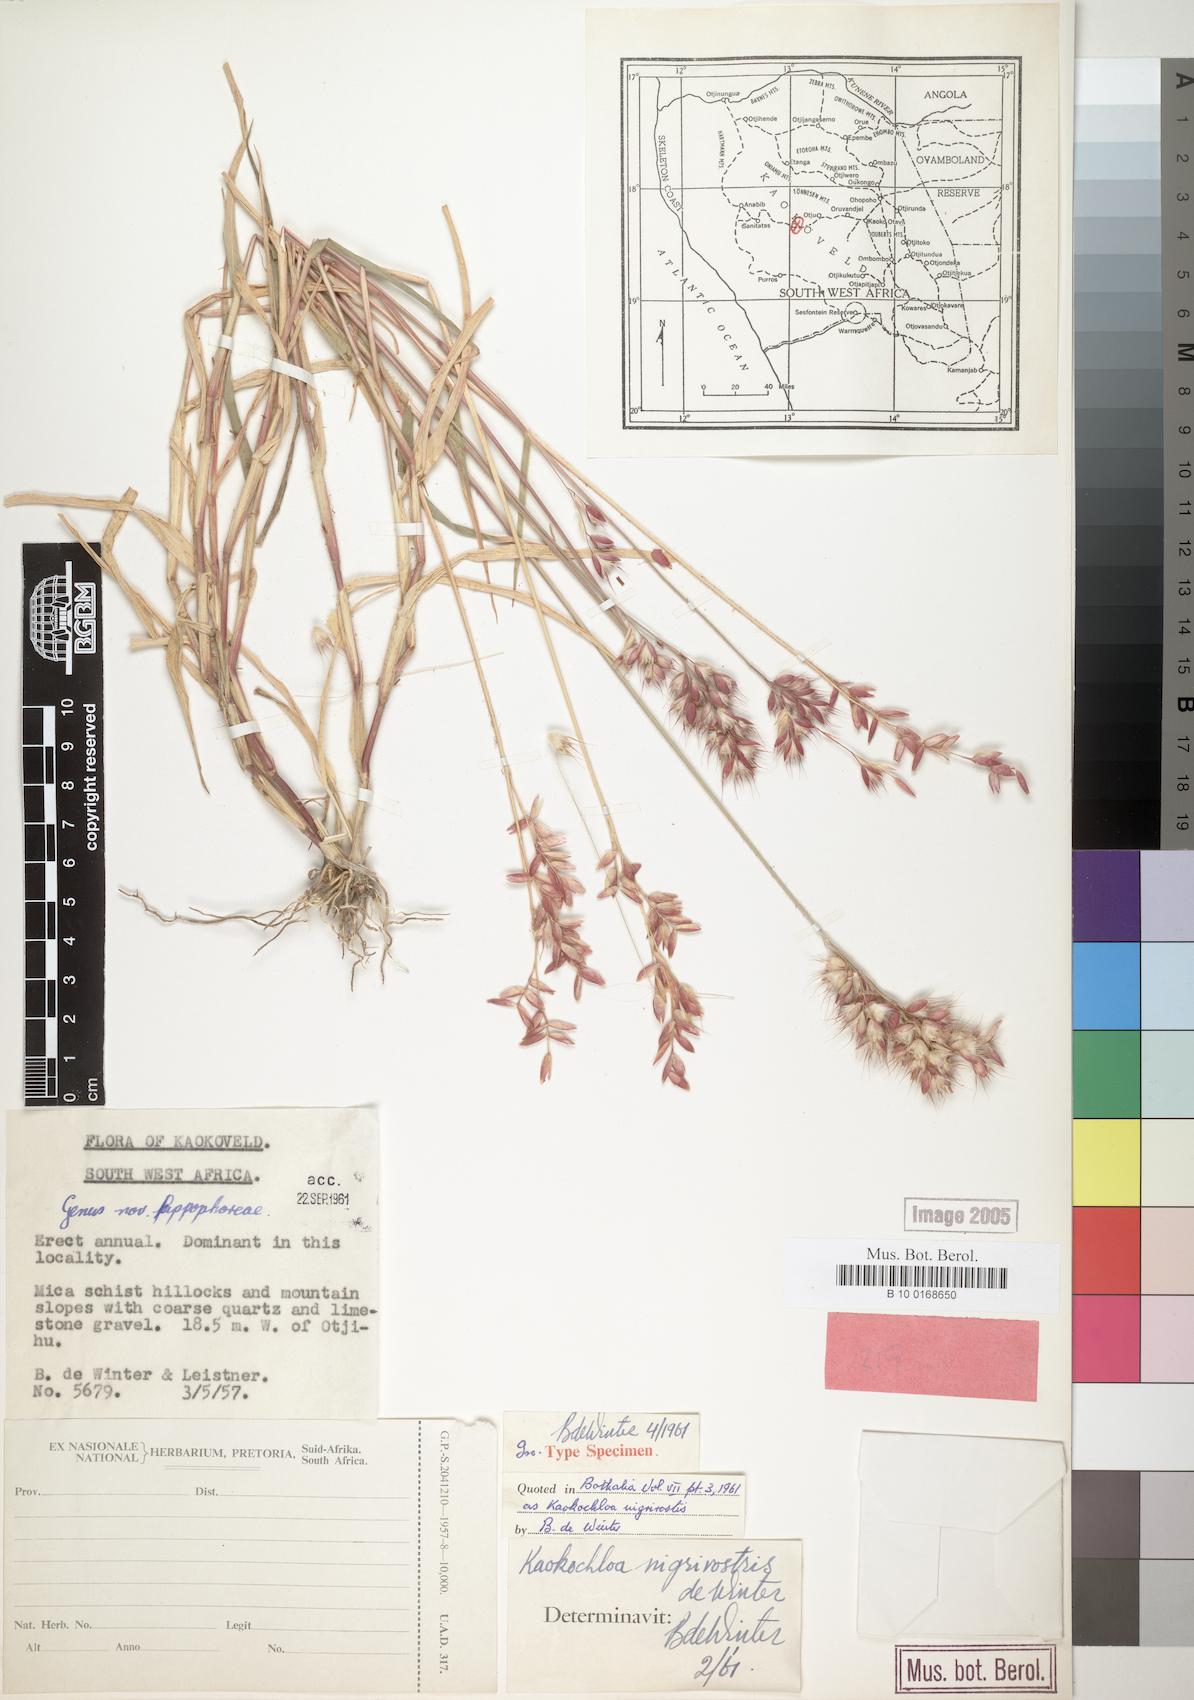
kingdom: Plantae
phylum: Tracheophyta
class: Liliopsida
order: Poales
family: Poaceae
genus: Kaokochloa
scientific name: Kaokochloa nigrirostris
